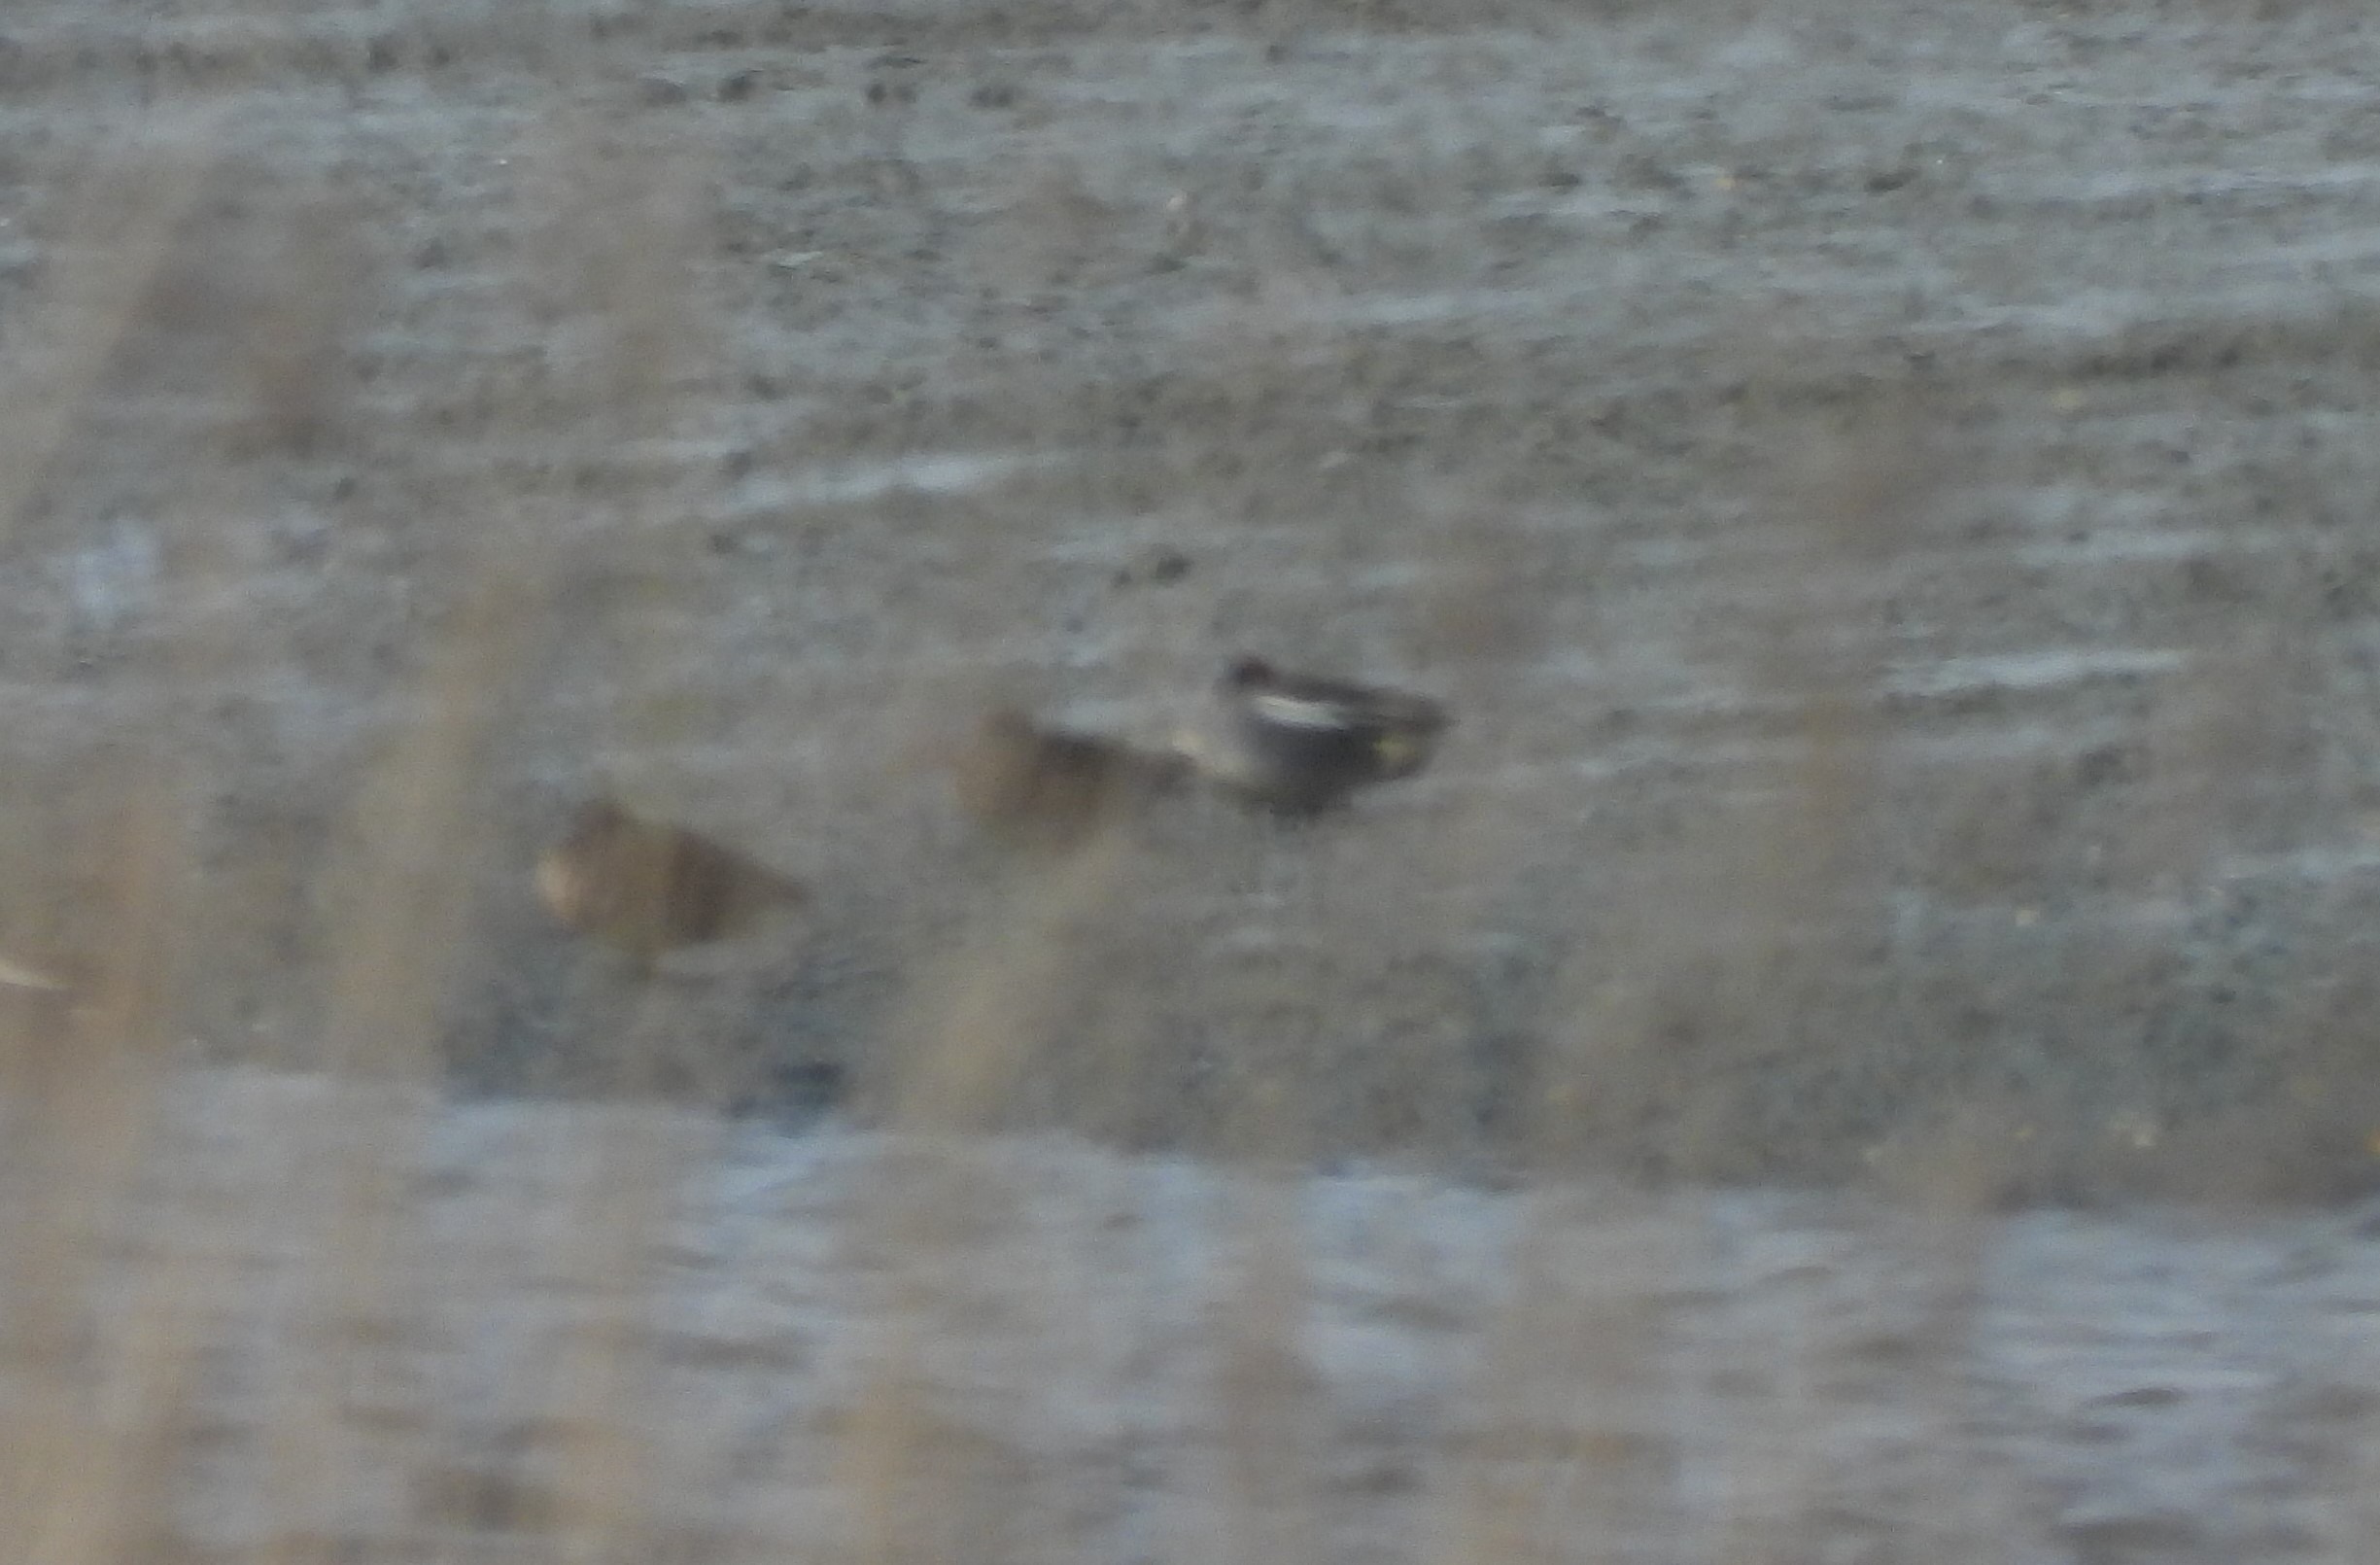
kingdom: Animalia
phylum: Chordata
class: Aves
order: Anseriformes
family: Anatidae
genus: Anas
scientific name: Anas crecca
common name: Krikand
